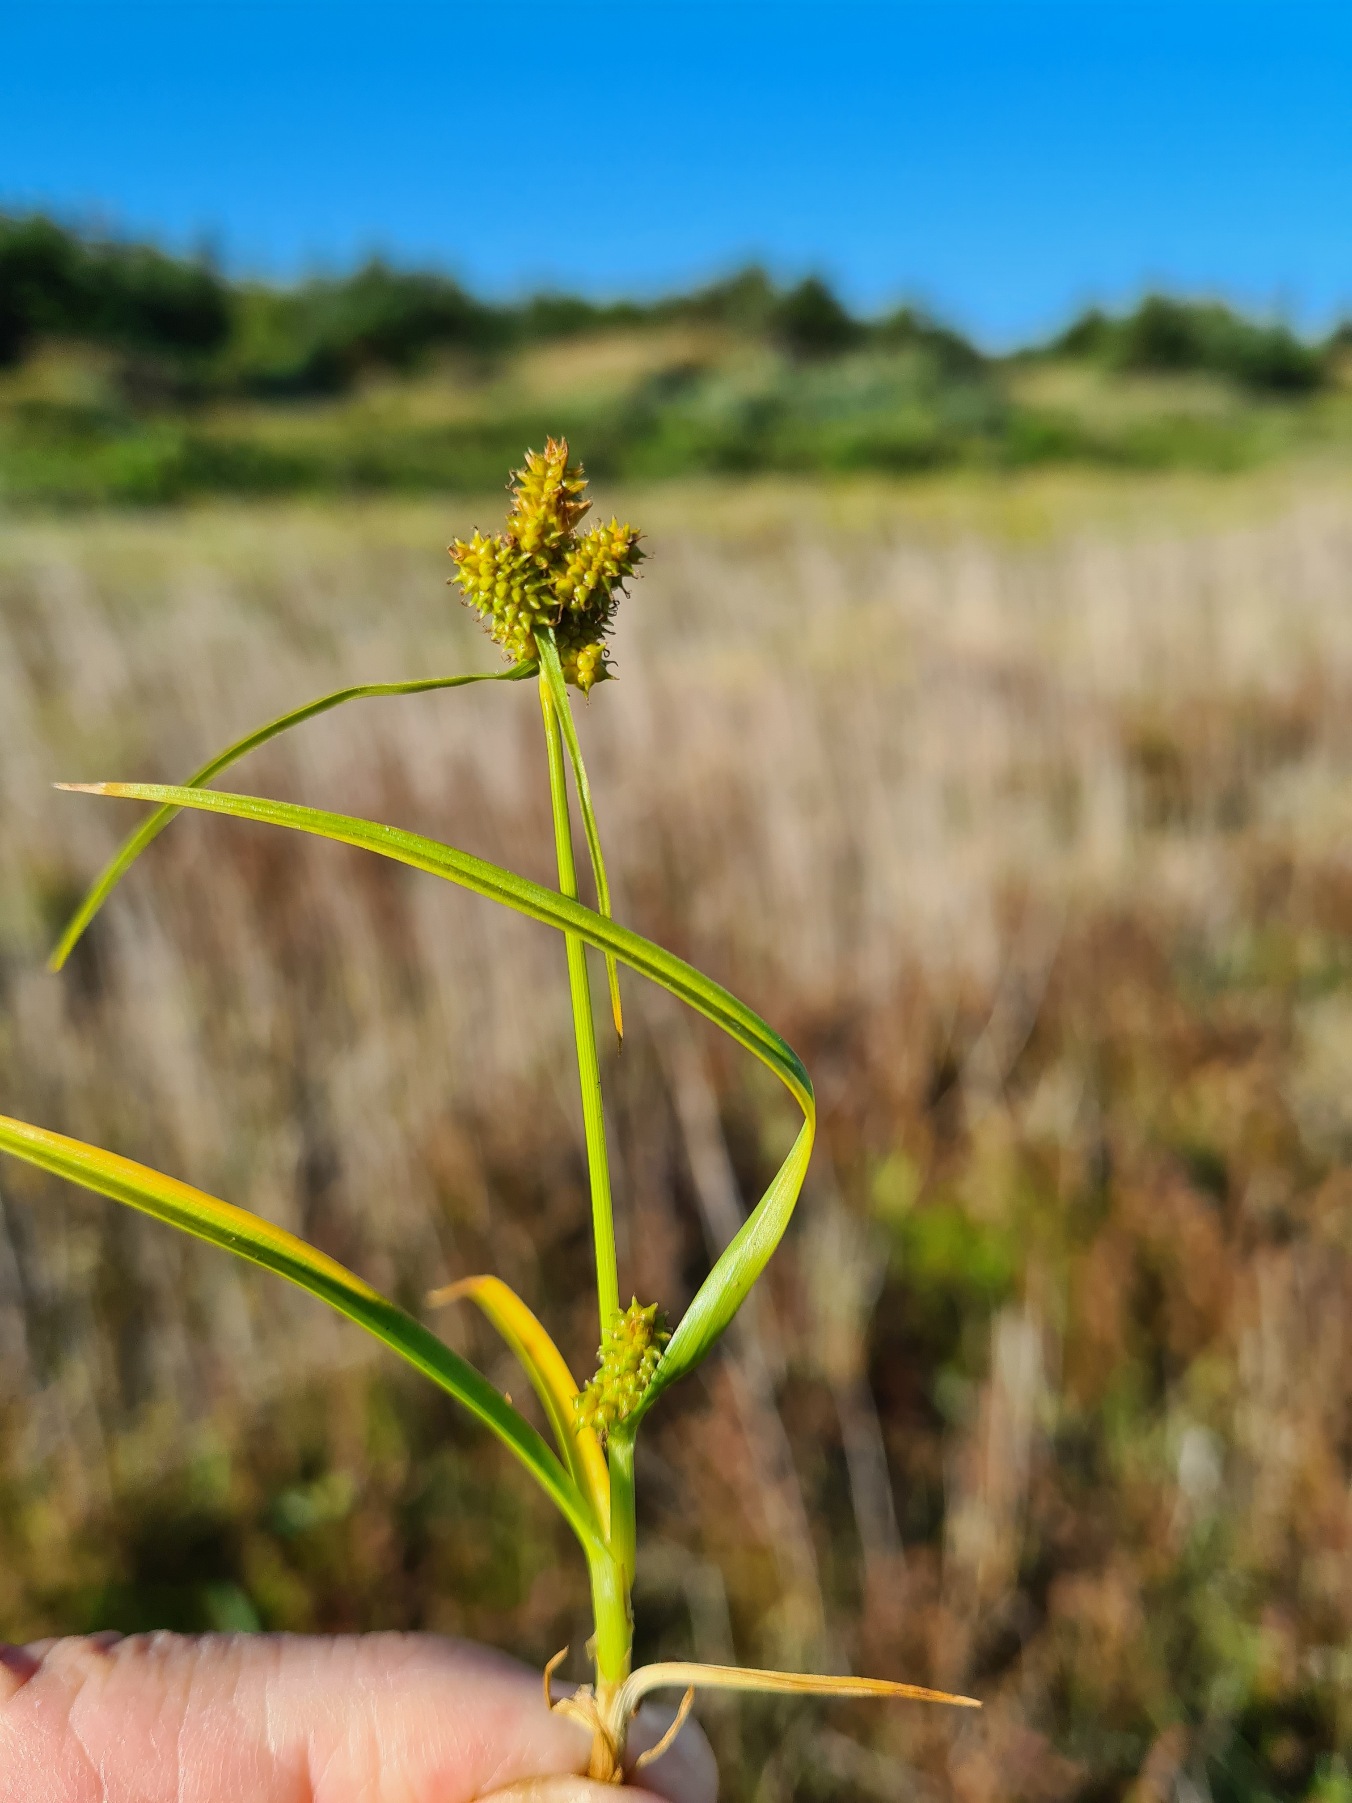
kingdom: Plantae
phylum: Tracheophyta
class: Liliopsida
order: Poales
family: Cyperaceae
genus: Carex
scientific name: Carex demissa
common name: Grøn star
